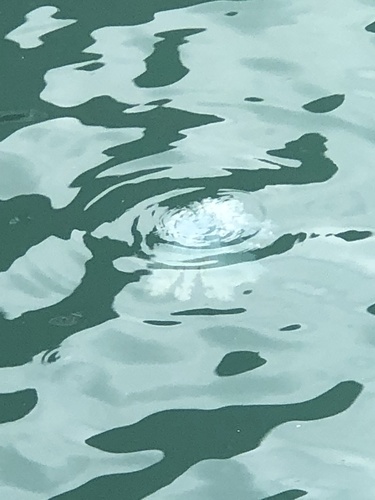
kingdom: Animalia
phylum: Cnidaria
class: Scyphozoa
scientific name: Scyphozoa
